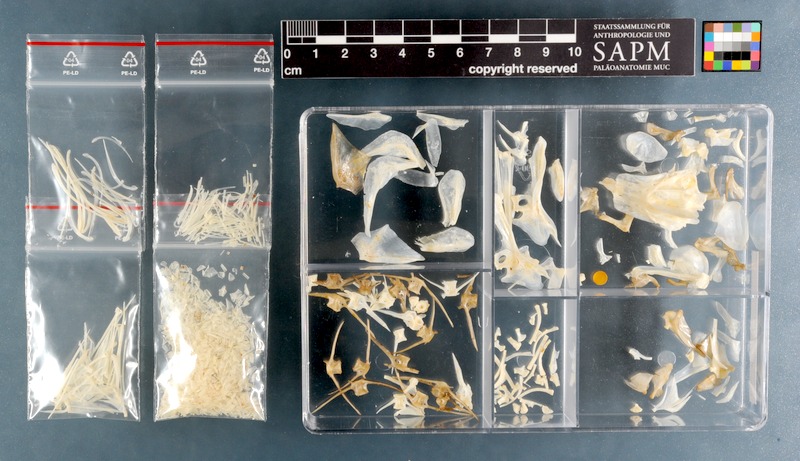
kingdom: Animalia
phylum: Chordata
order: Perciformes
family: Sparidae
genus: Spondyliosoma
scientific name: Spondyliosoma emarginatum
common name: Steentje seabream
